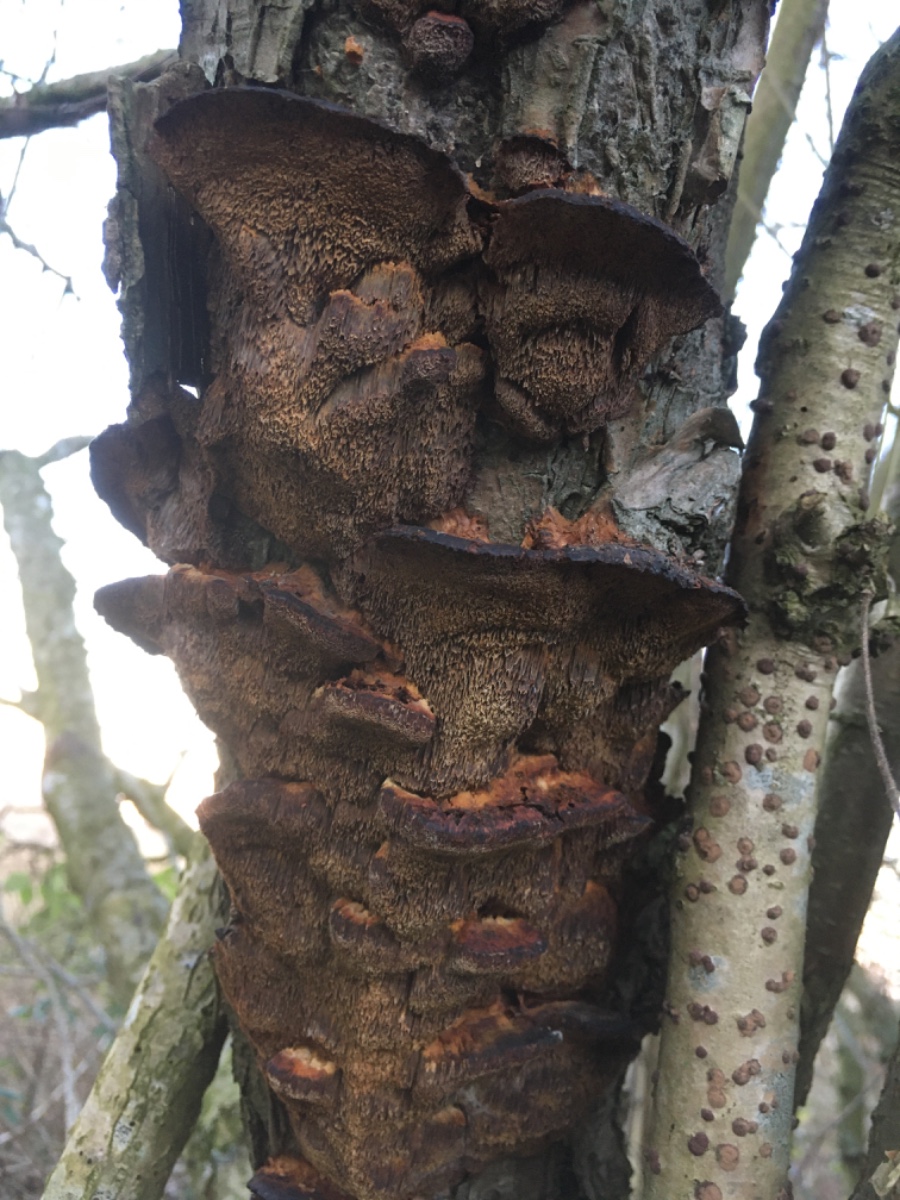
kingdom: Fungi
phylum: Basidiomycota
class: Agaricomycetes
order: Hymenochaetales
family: Hymenochaetaceae
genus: Xanthoporia
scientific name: Xanthoporia radiata
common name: elle-spejlporesvamp
